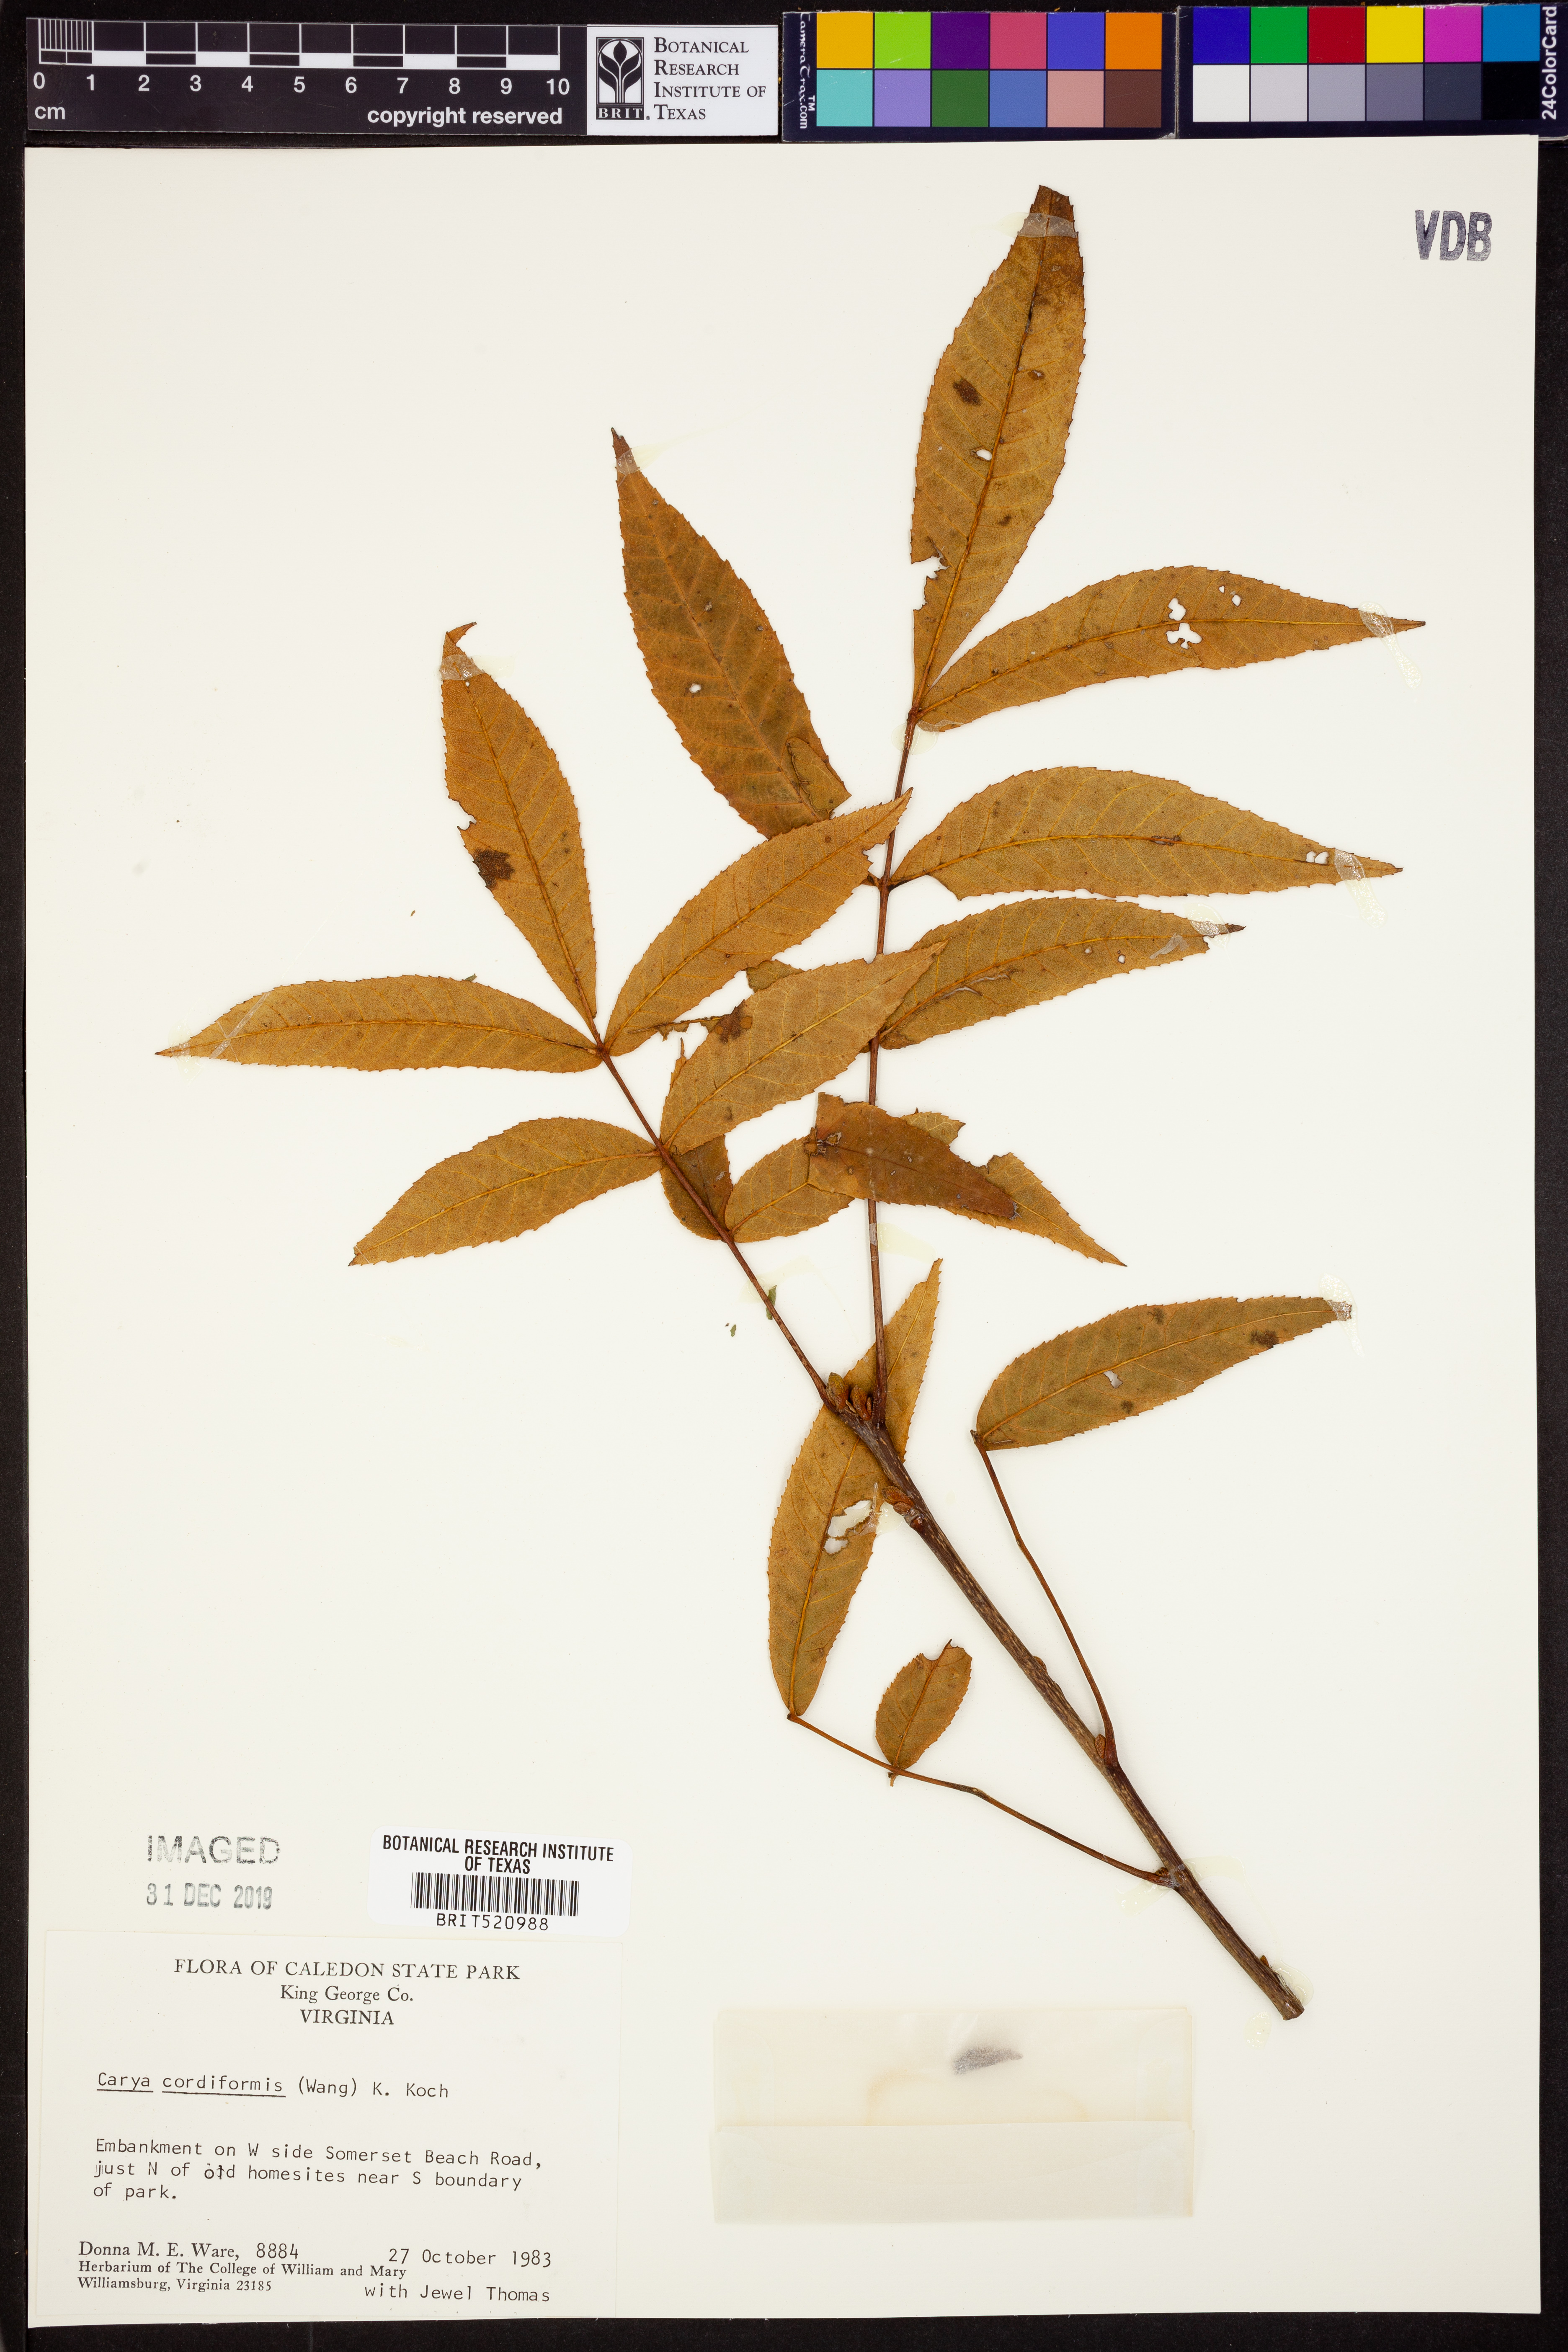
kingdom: Plantae
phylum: Tracheophyta
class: Magnoliopsida
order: Fagales
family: Juglandaceae
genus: Carya
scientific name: Carya cordiformis
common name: Bitternut hickory
